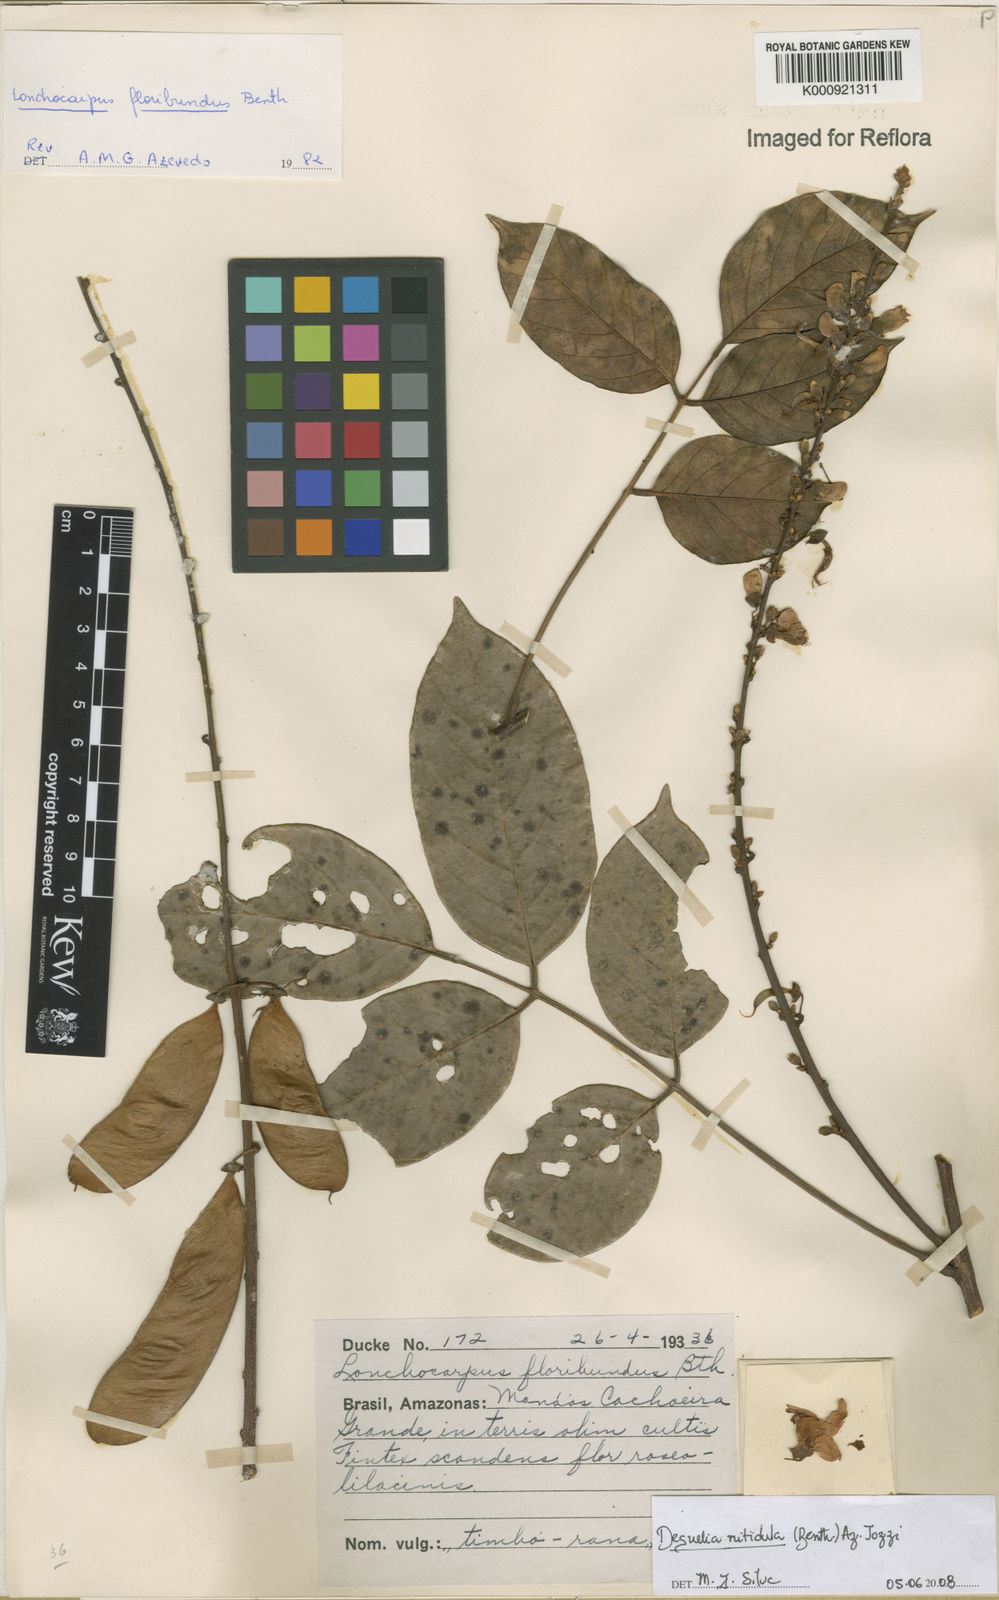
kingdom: Plantae
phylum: Tracheophyta
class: Magnoliopsida
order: Fabales
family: Fabaceae
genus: Deguelia
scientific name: Deguelia nitidula
